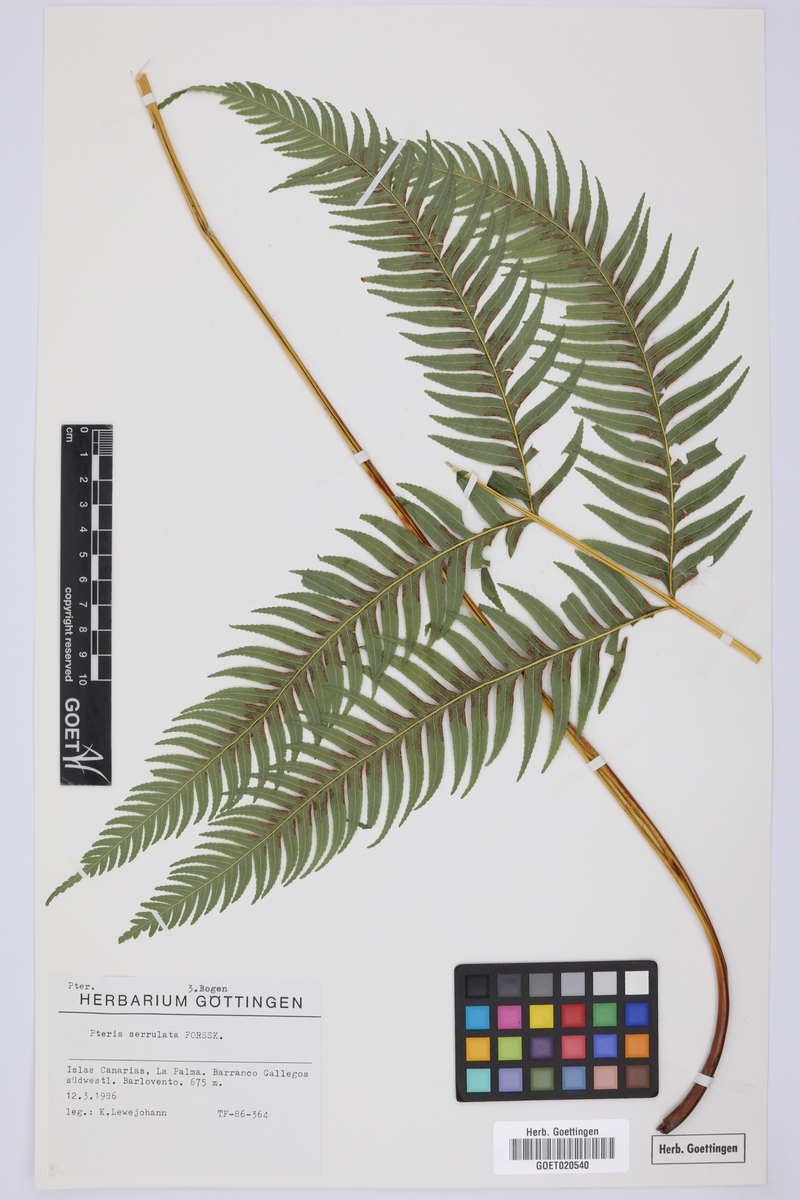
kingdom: Plantae
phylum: Tracheophyta
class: Polypodiopsida
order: Polypodiales
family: Pteridaceae
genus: Pteris
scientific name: Pteris dentata
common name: Toothed brake
